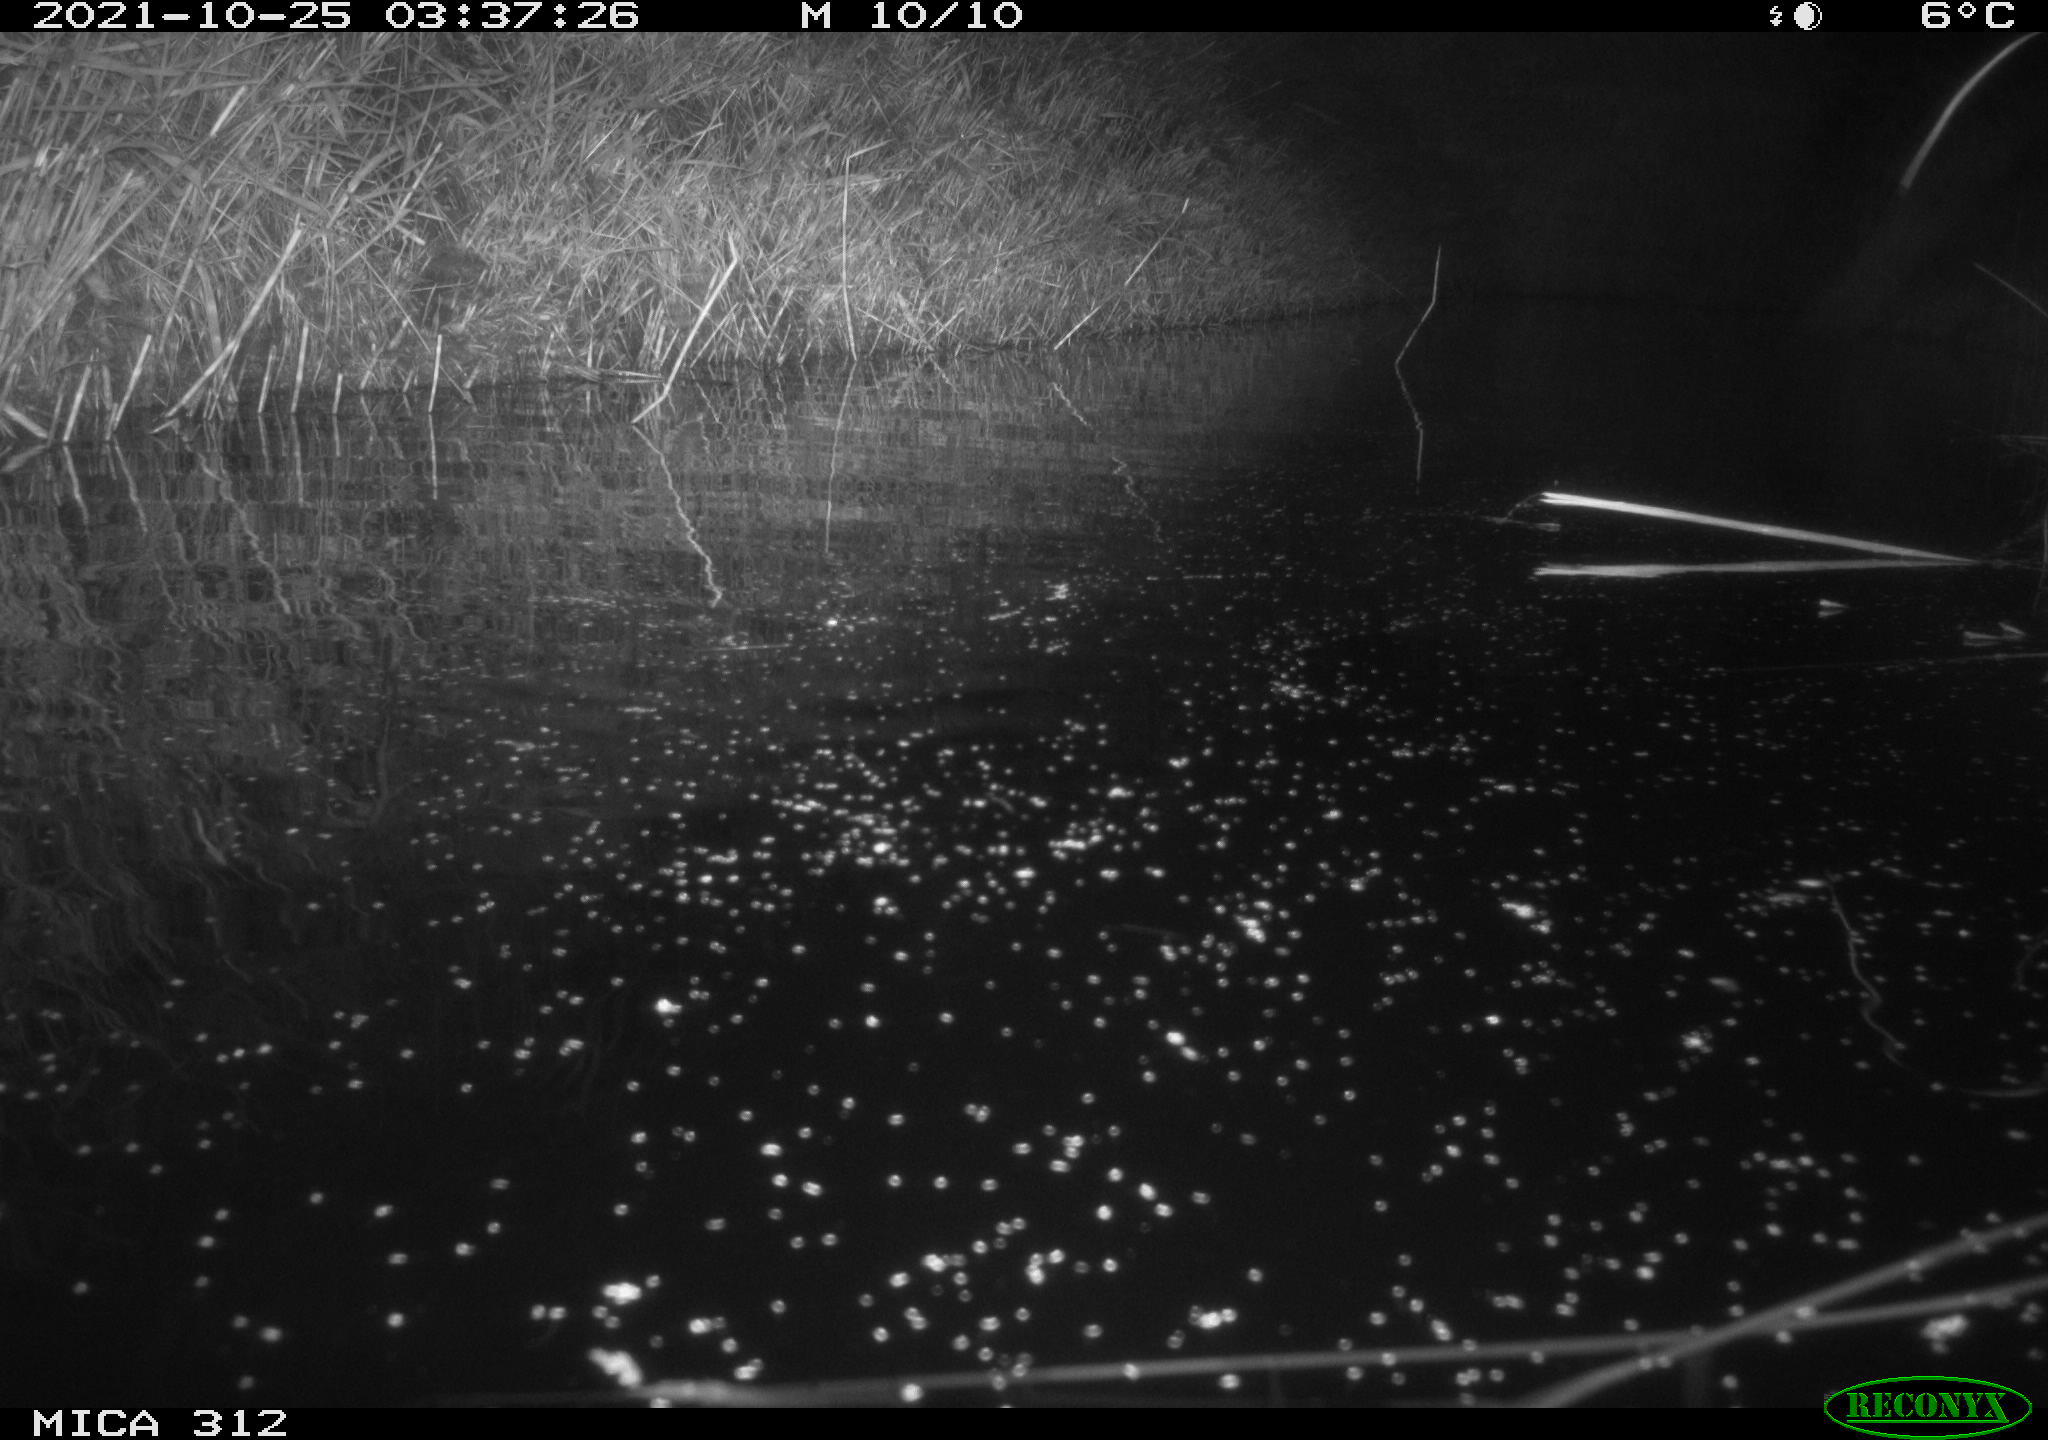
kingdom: Animalia
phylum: Chordata
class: Mammalia
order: Rodentia
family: Cricetidae
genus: Ondatra
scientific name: Ondatra zibethicus
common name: Muskrat
